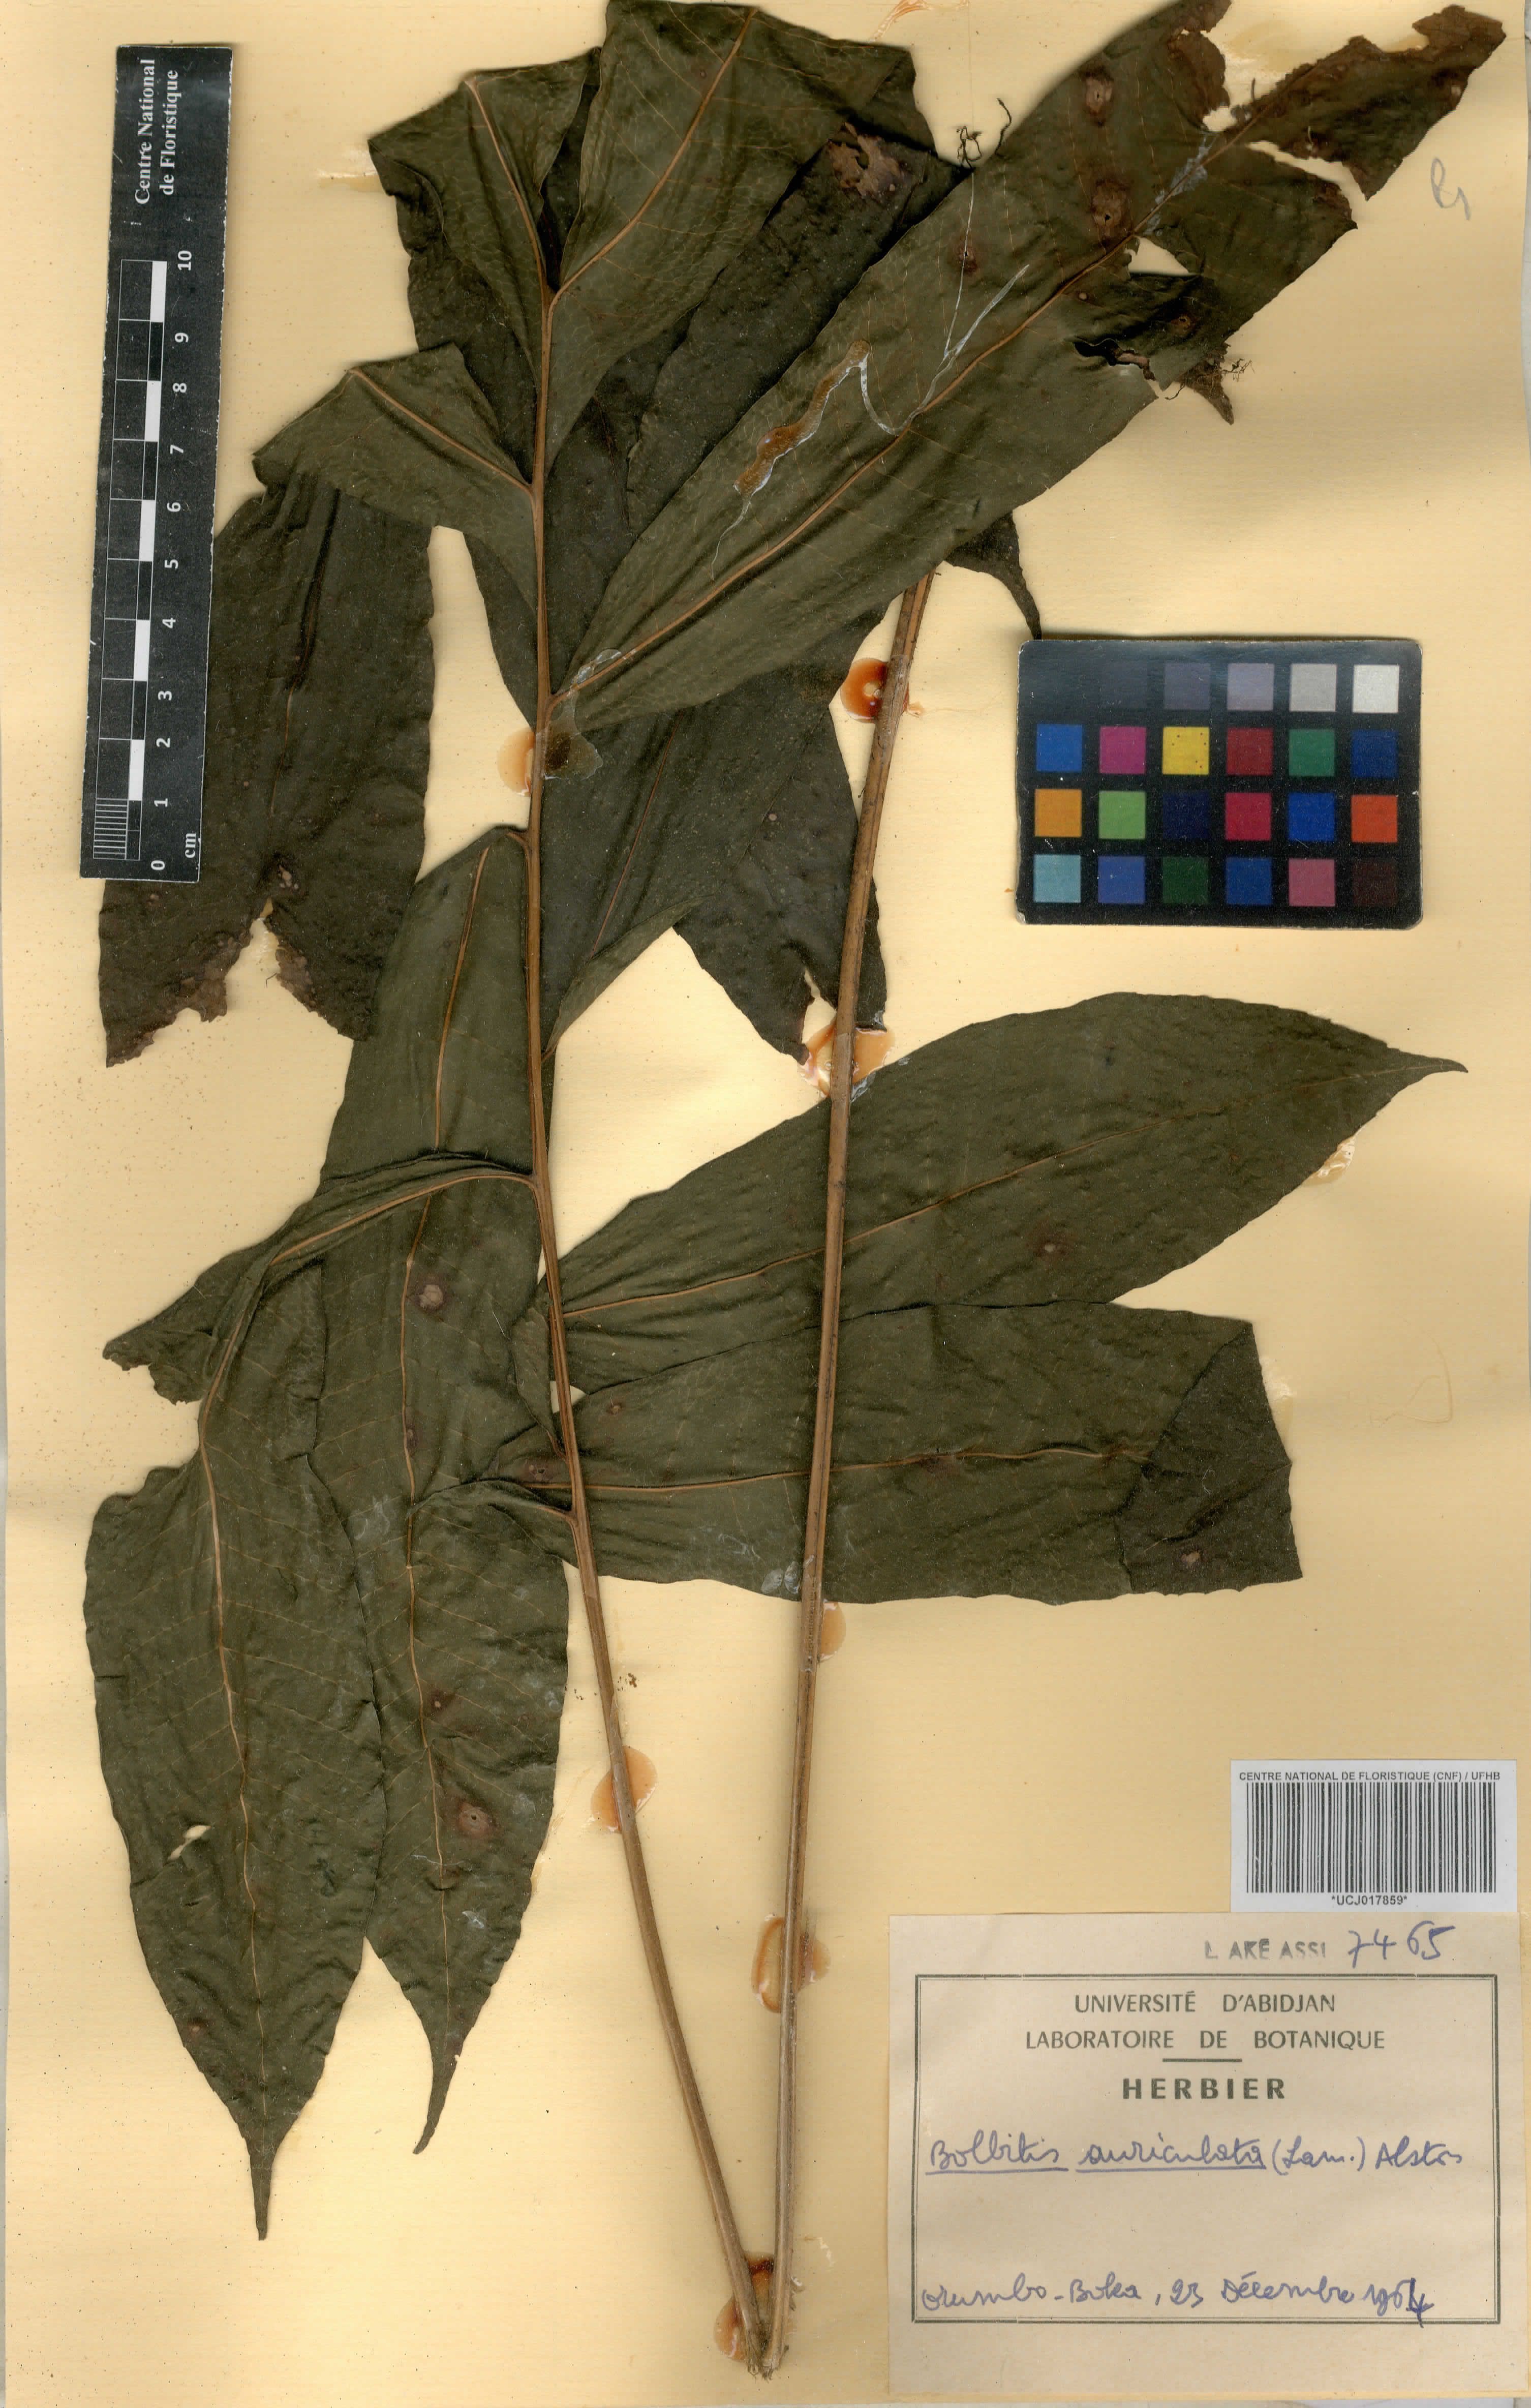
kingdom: Plantae
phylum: Tracheophyta
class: Polypodiopsida
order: Polypodiales
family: Dryopteridaceae
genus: Bolbitis
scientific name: Bolbitis auriculata
